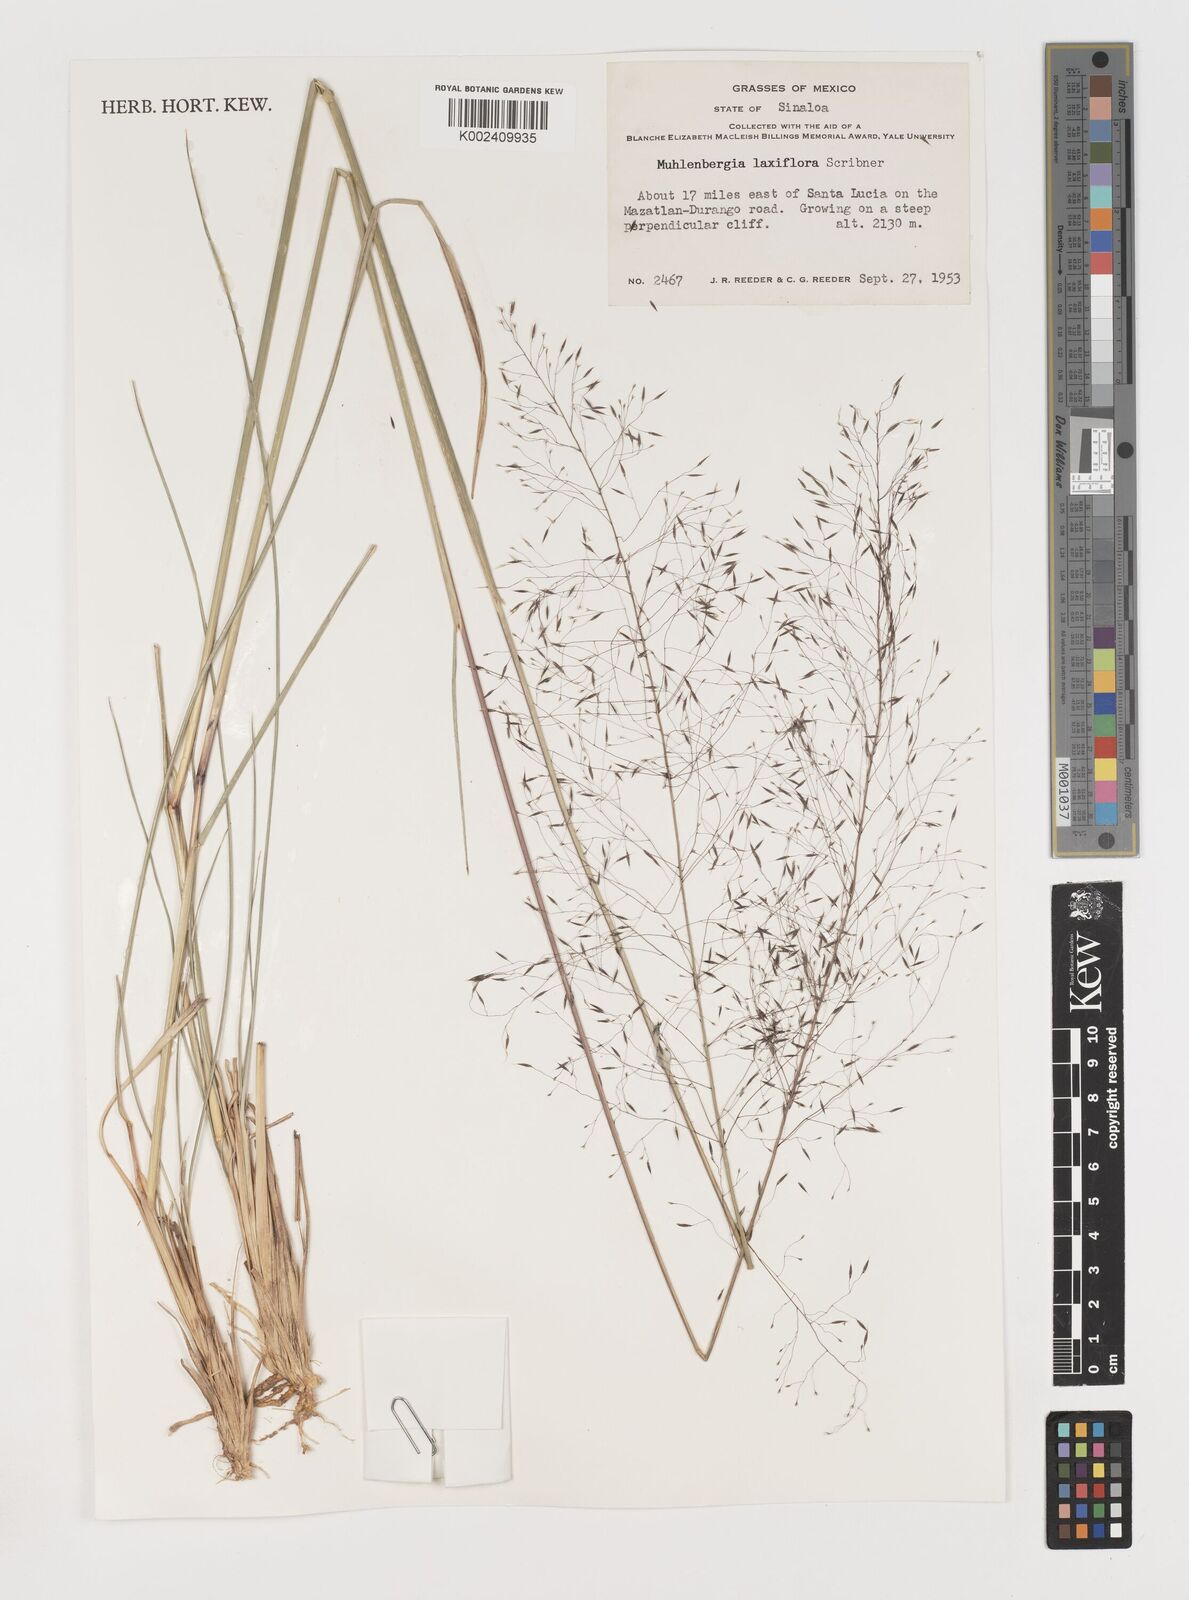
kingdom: Plantae
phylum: Tracheophyta
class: Liliopsida
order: Poales
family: Poaceae
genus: Muhlenbergia
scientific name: Muhlenbergia mucronata
